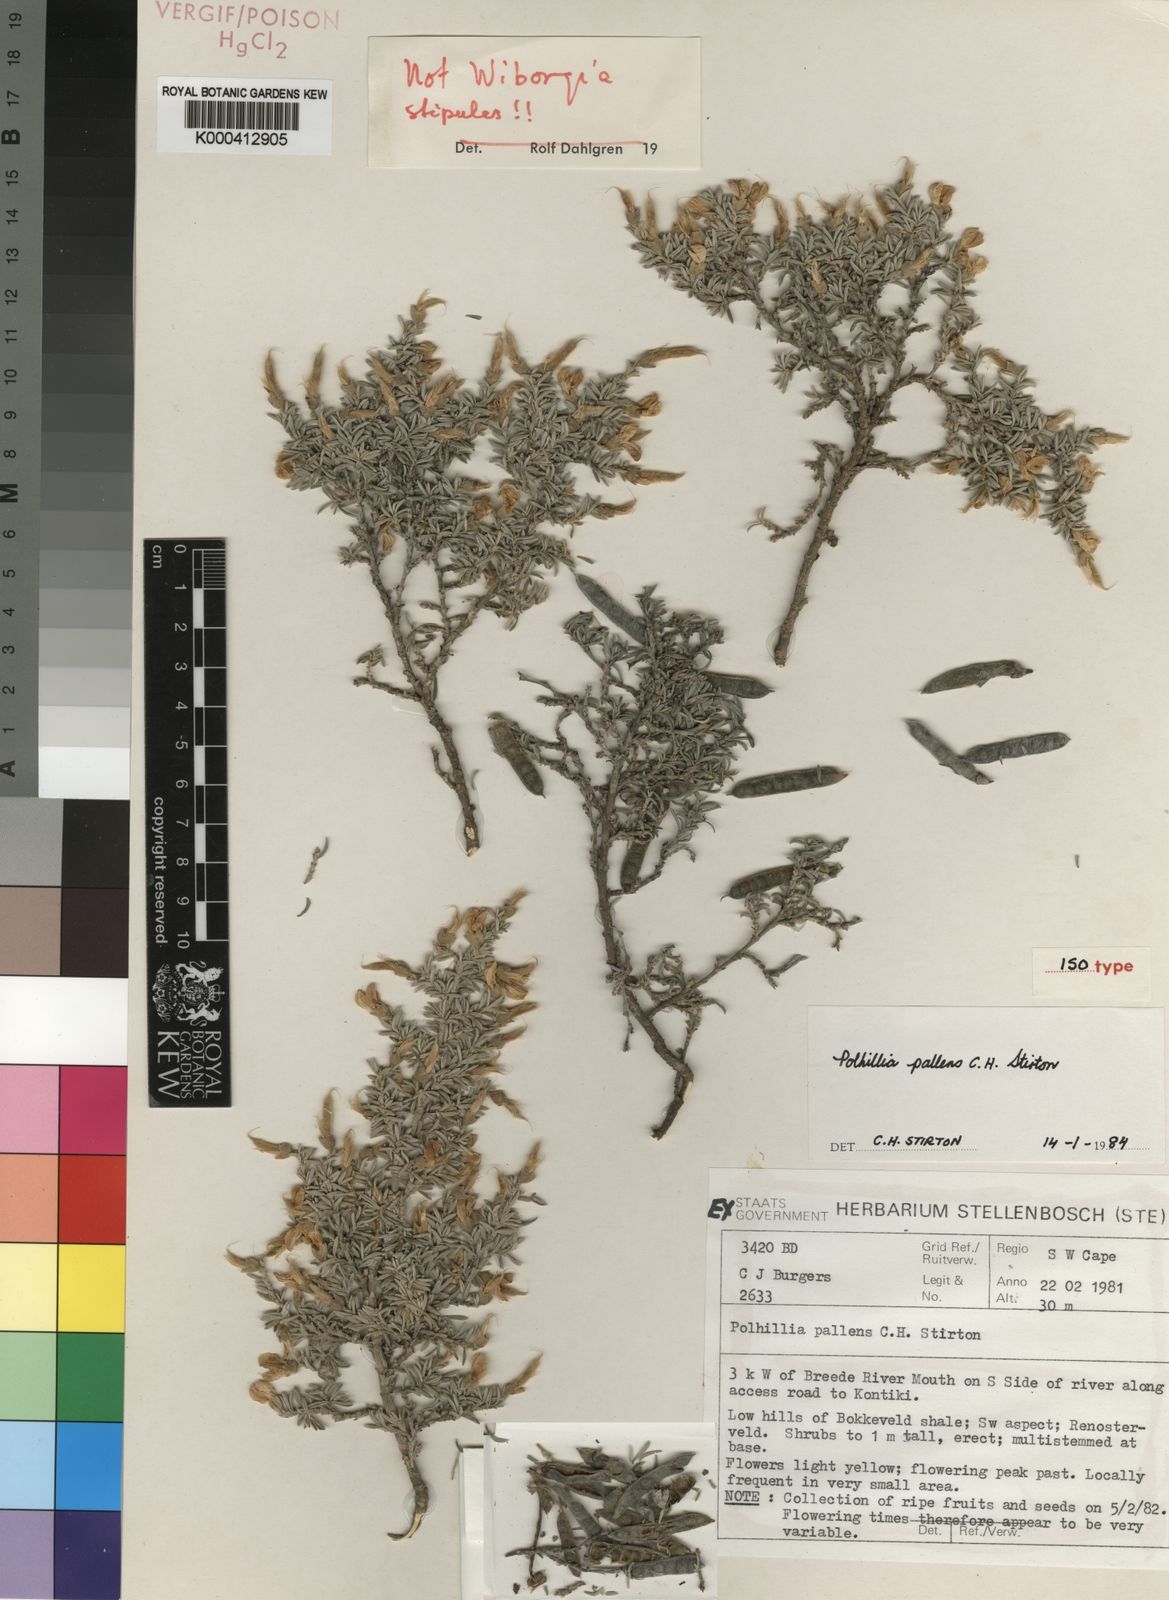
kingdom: Plantae
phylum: Tracheophyta
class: Magnoliopsida
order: Fabales
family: Fabaceae
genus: Polhillia
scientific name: Polhillia pallens
